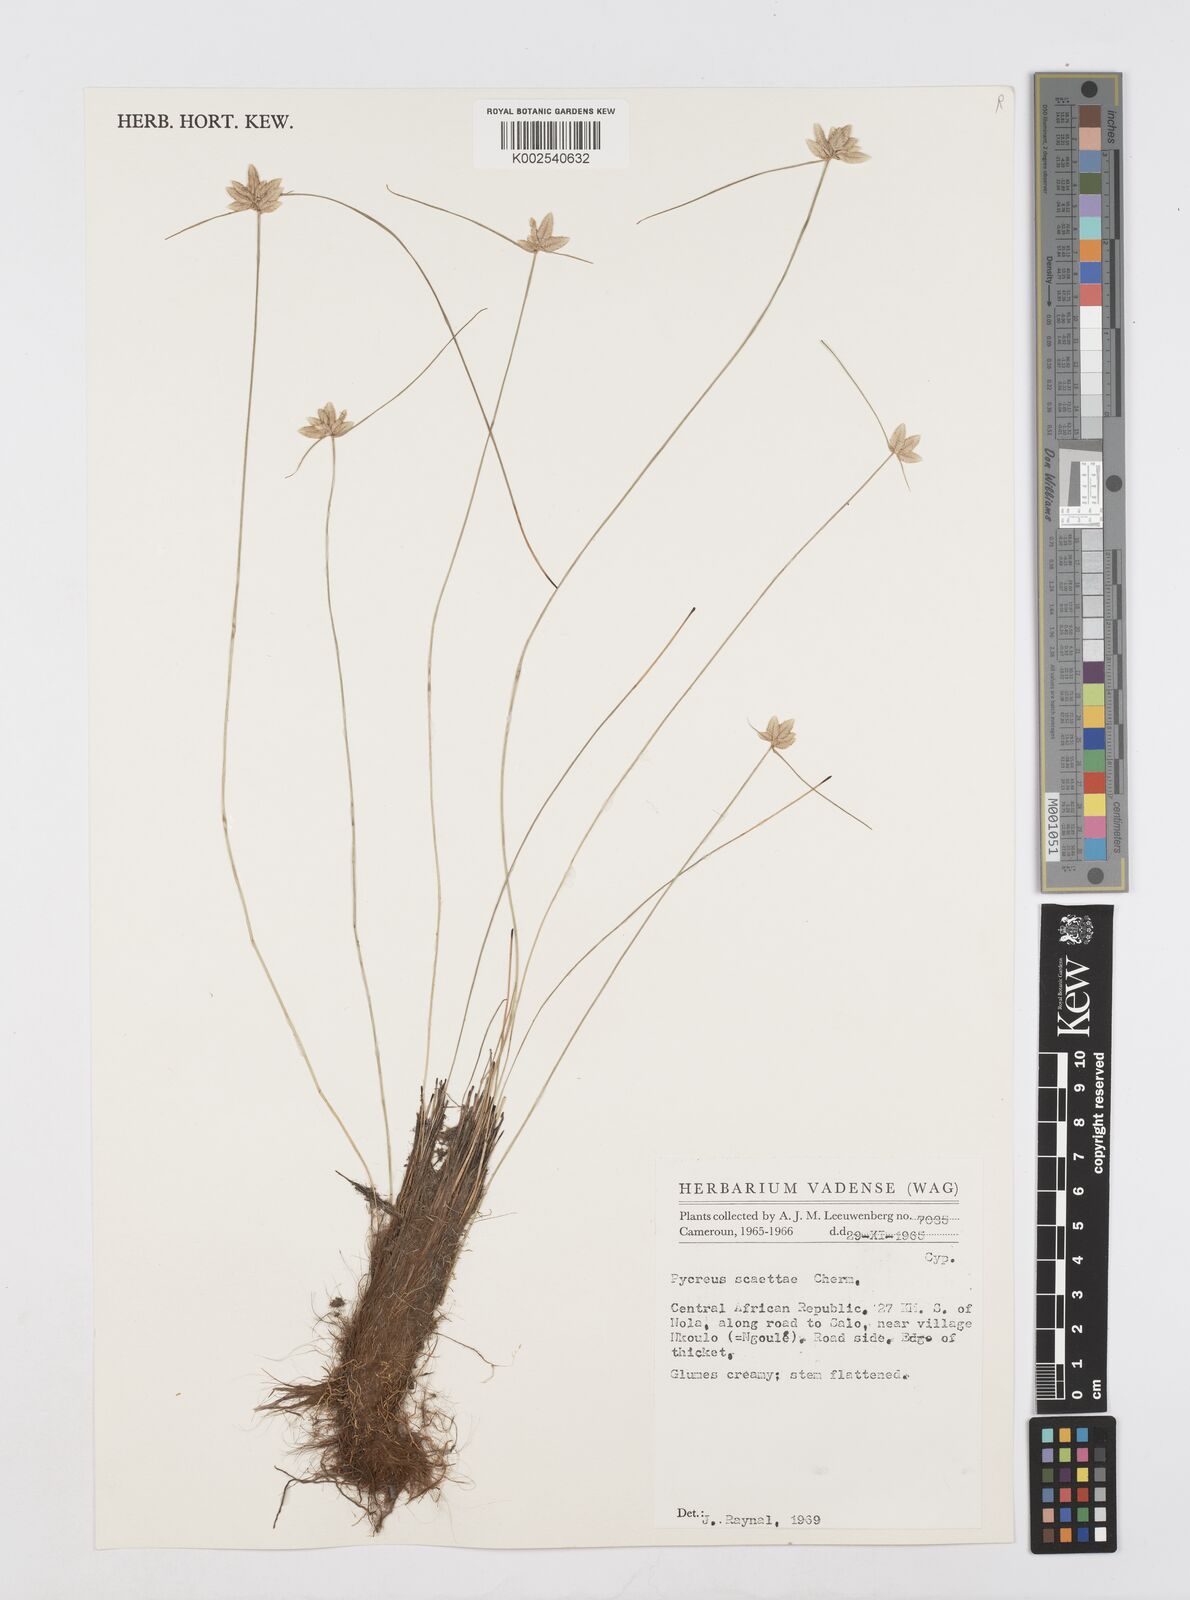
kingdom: Plantae
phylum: Tracheophyta
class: Liliopsida
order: Poales
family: Cyperaceae
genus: Cyperus
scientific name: Cyperus scaettae
